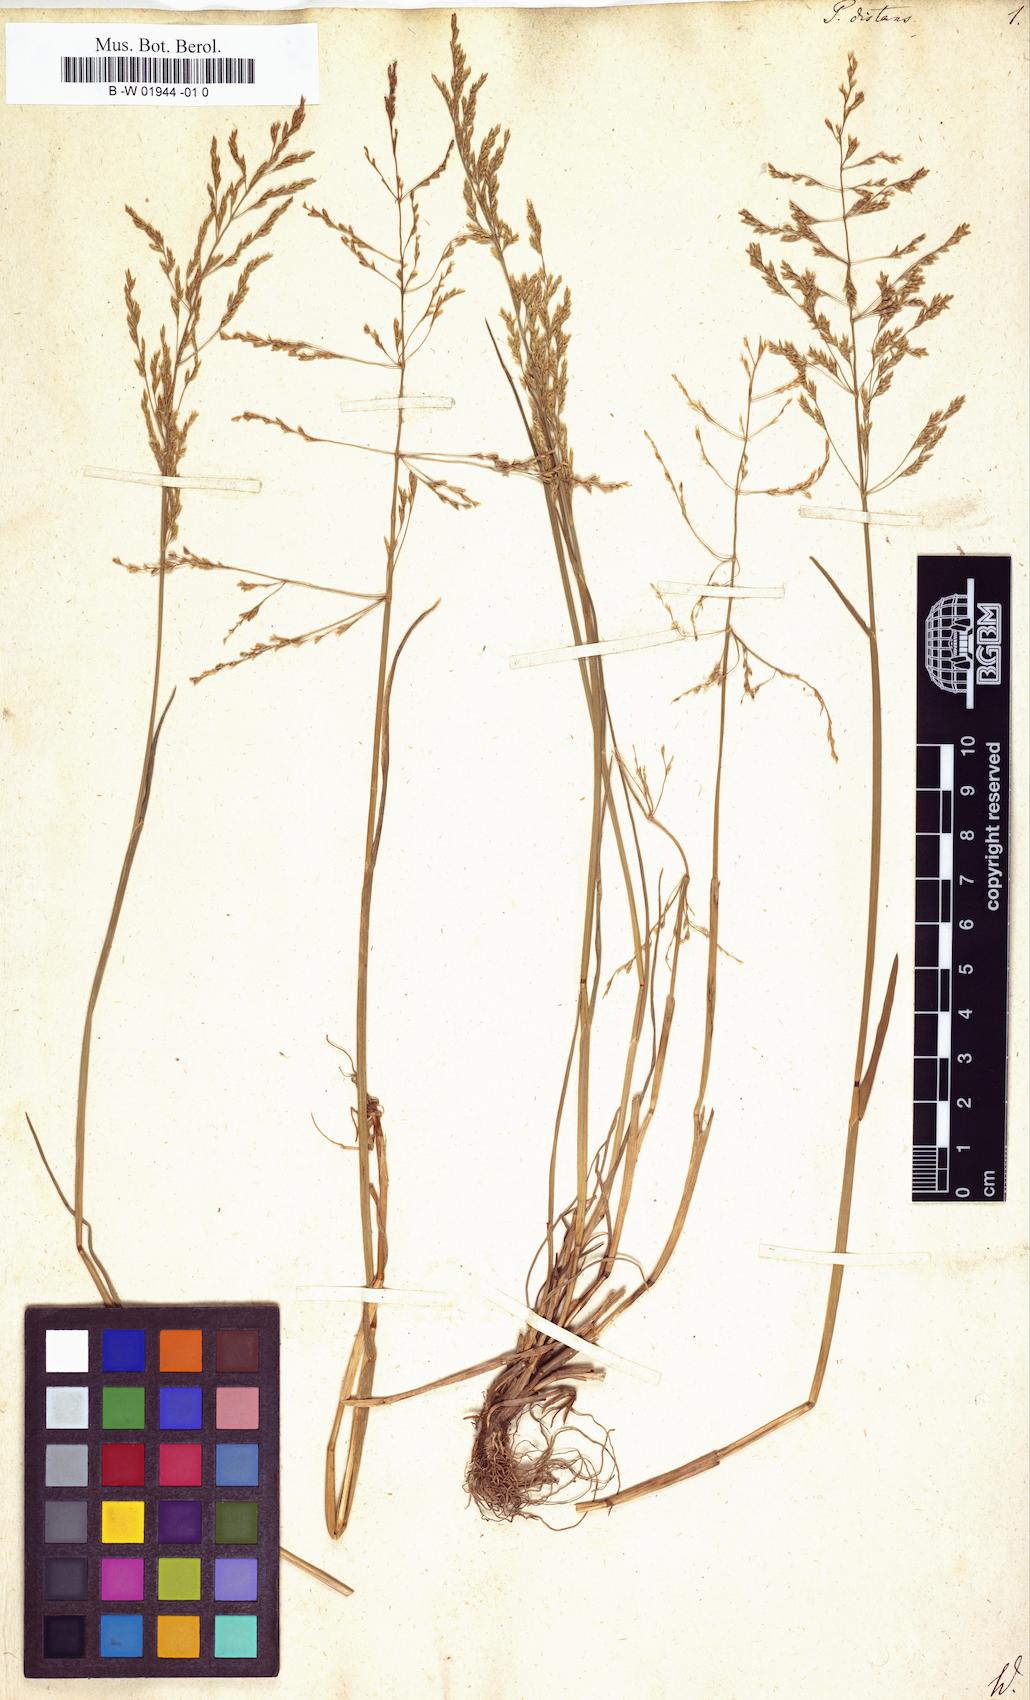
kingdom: Plantae
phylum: Tracheophyta
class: Liliopsida
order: Poales
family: Poaceae
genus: Poa
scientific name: Poa distans
